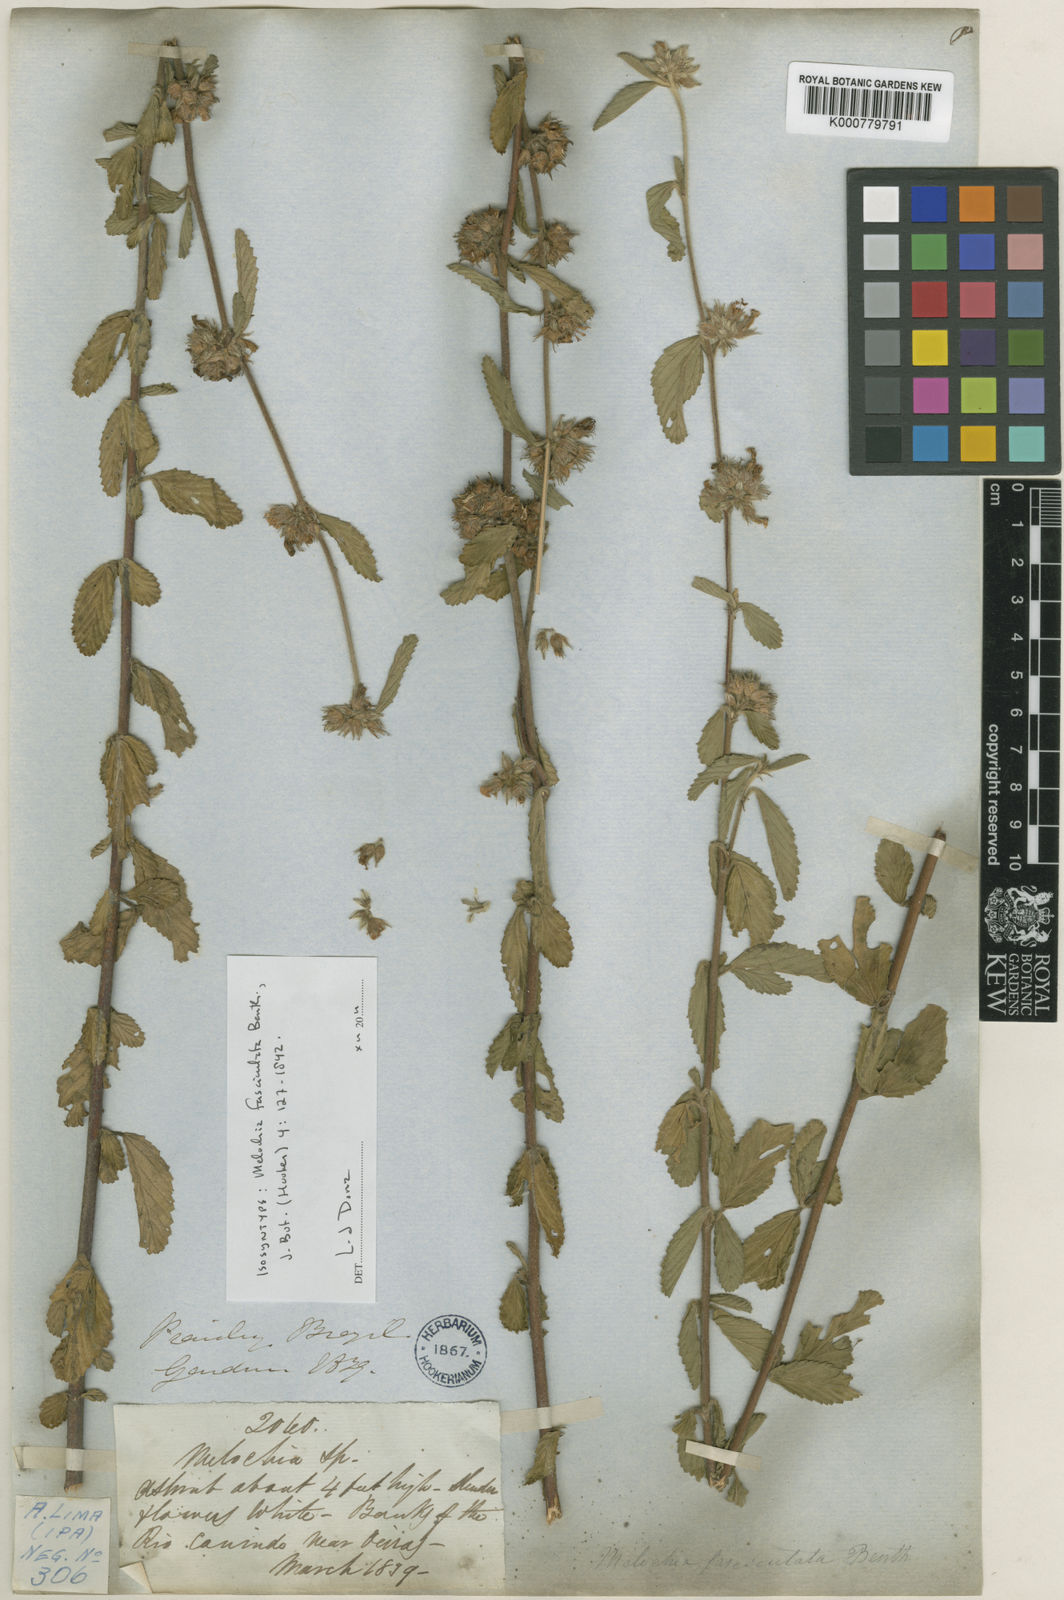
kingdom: Plantae
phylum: Tracheophyta
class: Magnoliopsida
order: Malvales
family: Malvaceae
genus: Melochia
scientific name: Melochia parvifolia
